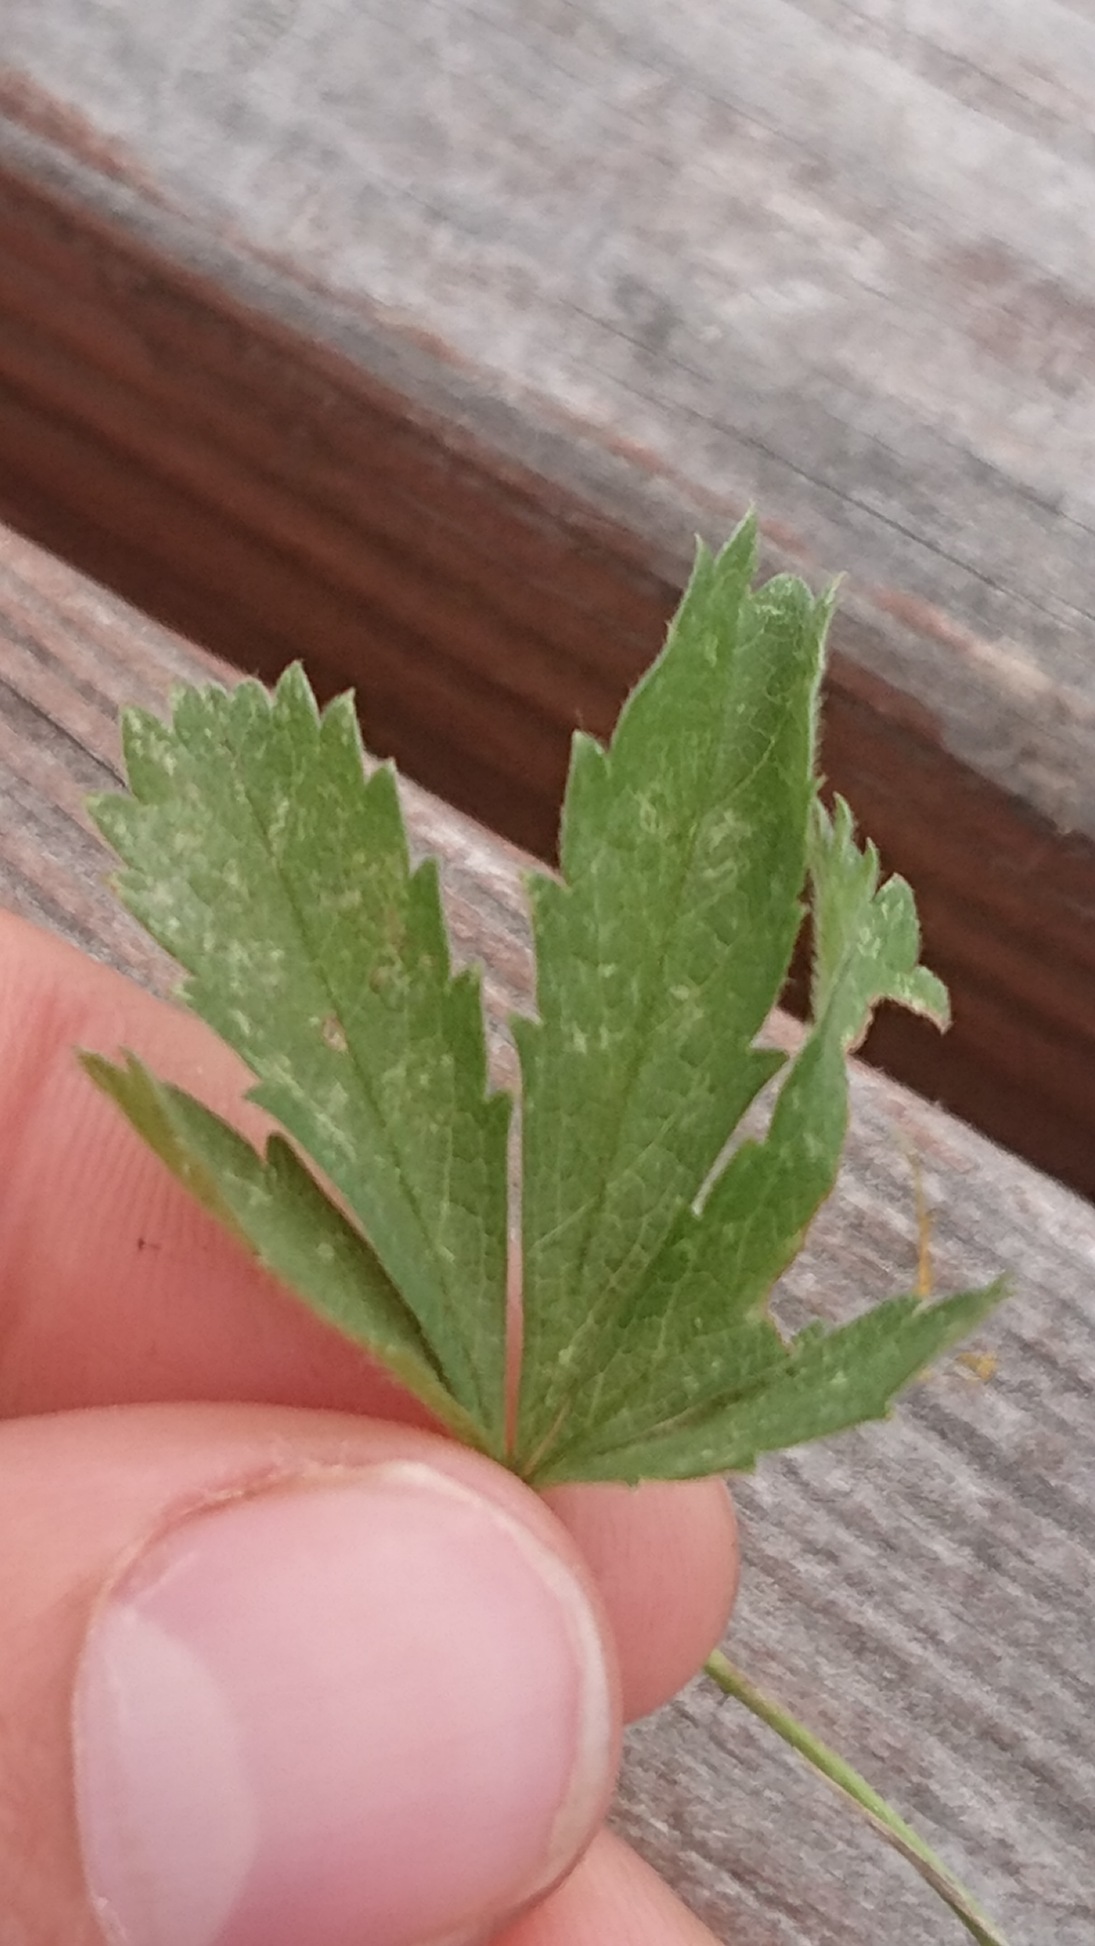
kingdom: Plantae
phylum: Tracheophyta
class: Magnoliopsida
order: Rosales
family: Rosaceae
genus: Potentilla
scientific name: Potentilla reptans
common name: Krybende potentil
